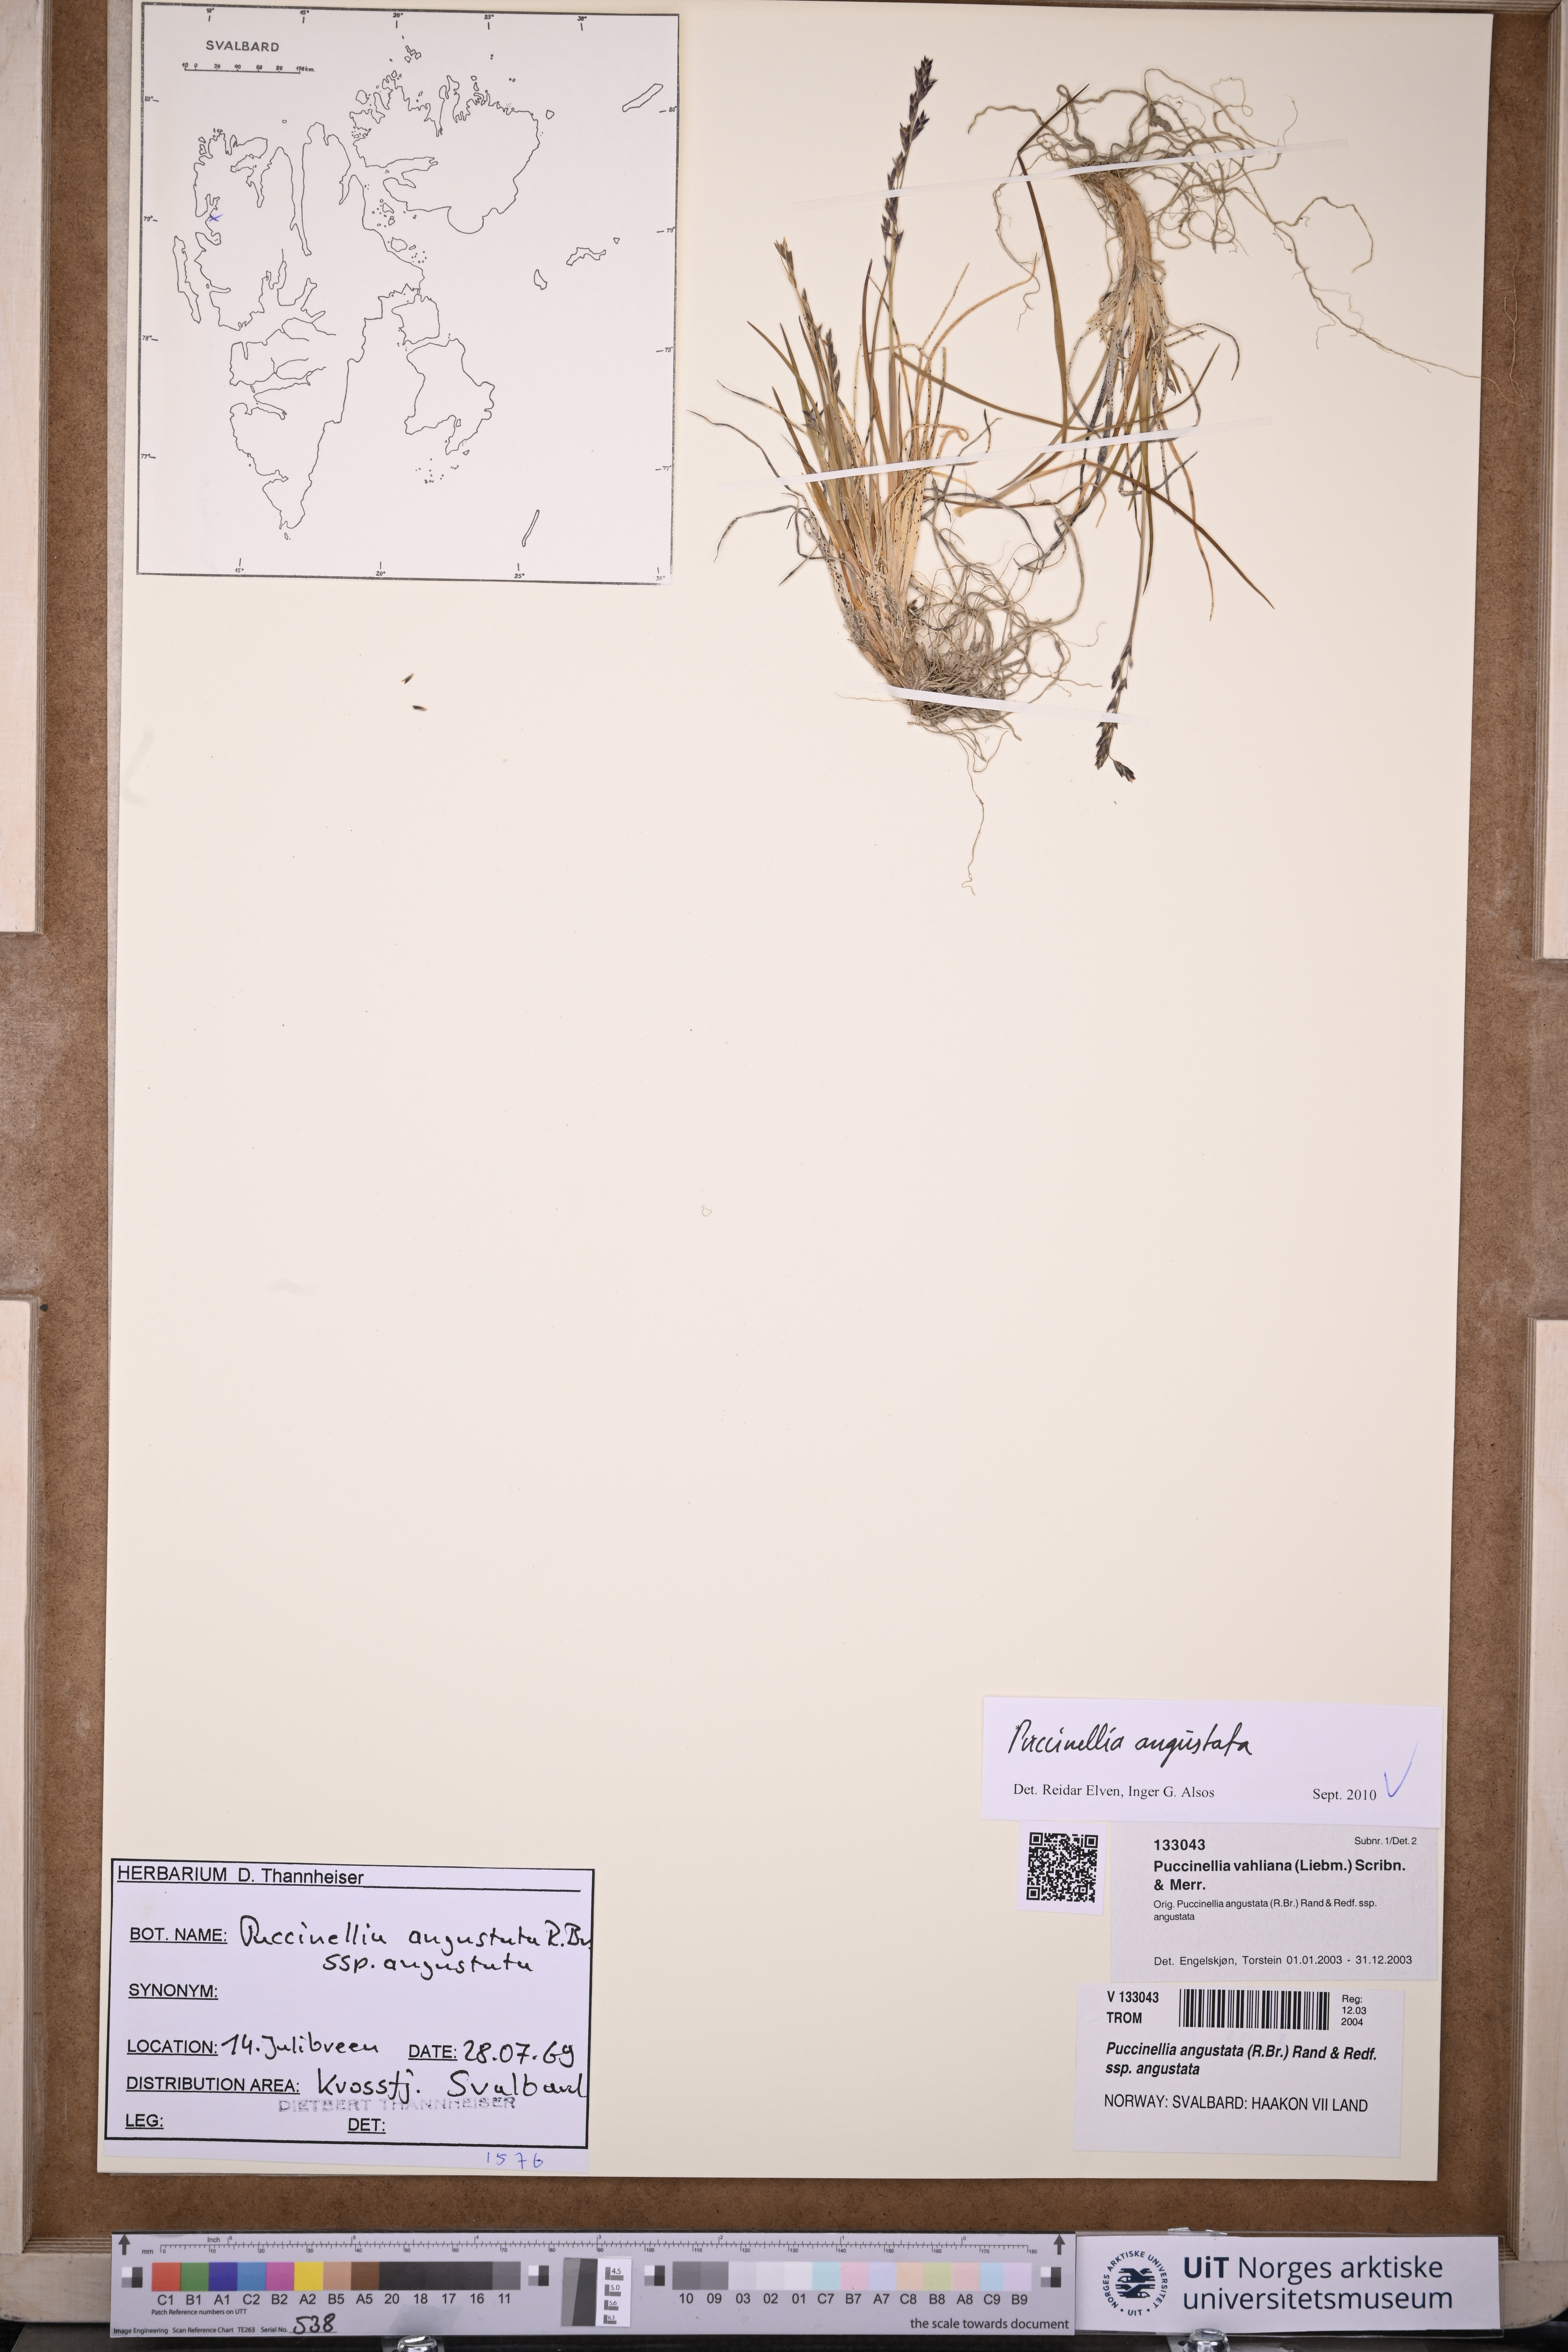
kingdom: Plantae
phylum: Tracheophyta
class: Liliopsida
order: Poales
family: Poaceae
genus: Puccinellia
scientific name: Puccinellia angustata
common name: Narrow alkaligrass
